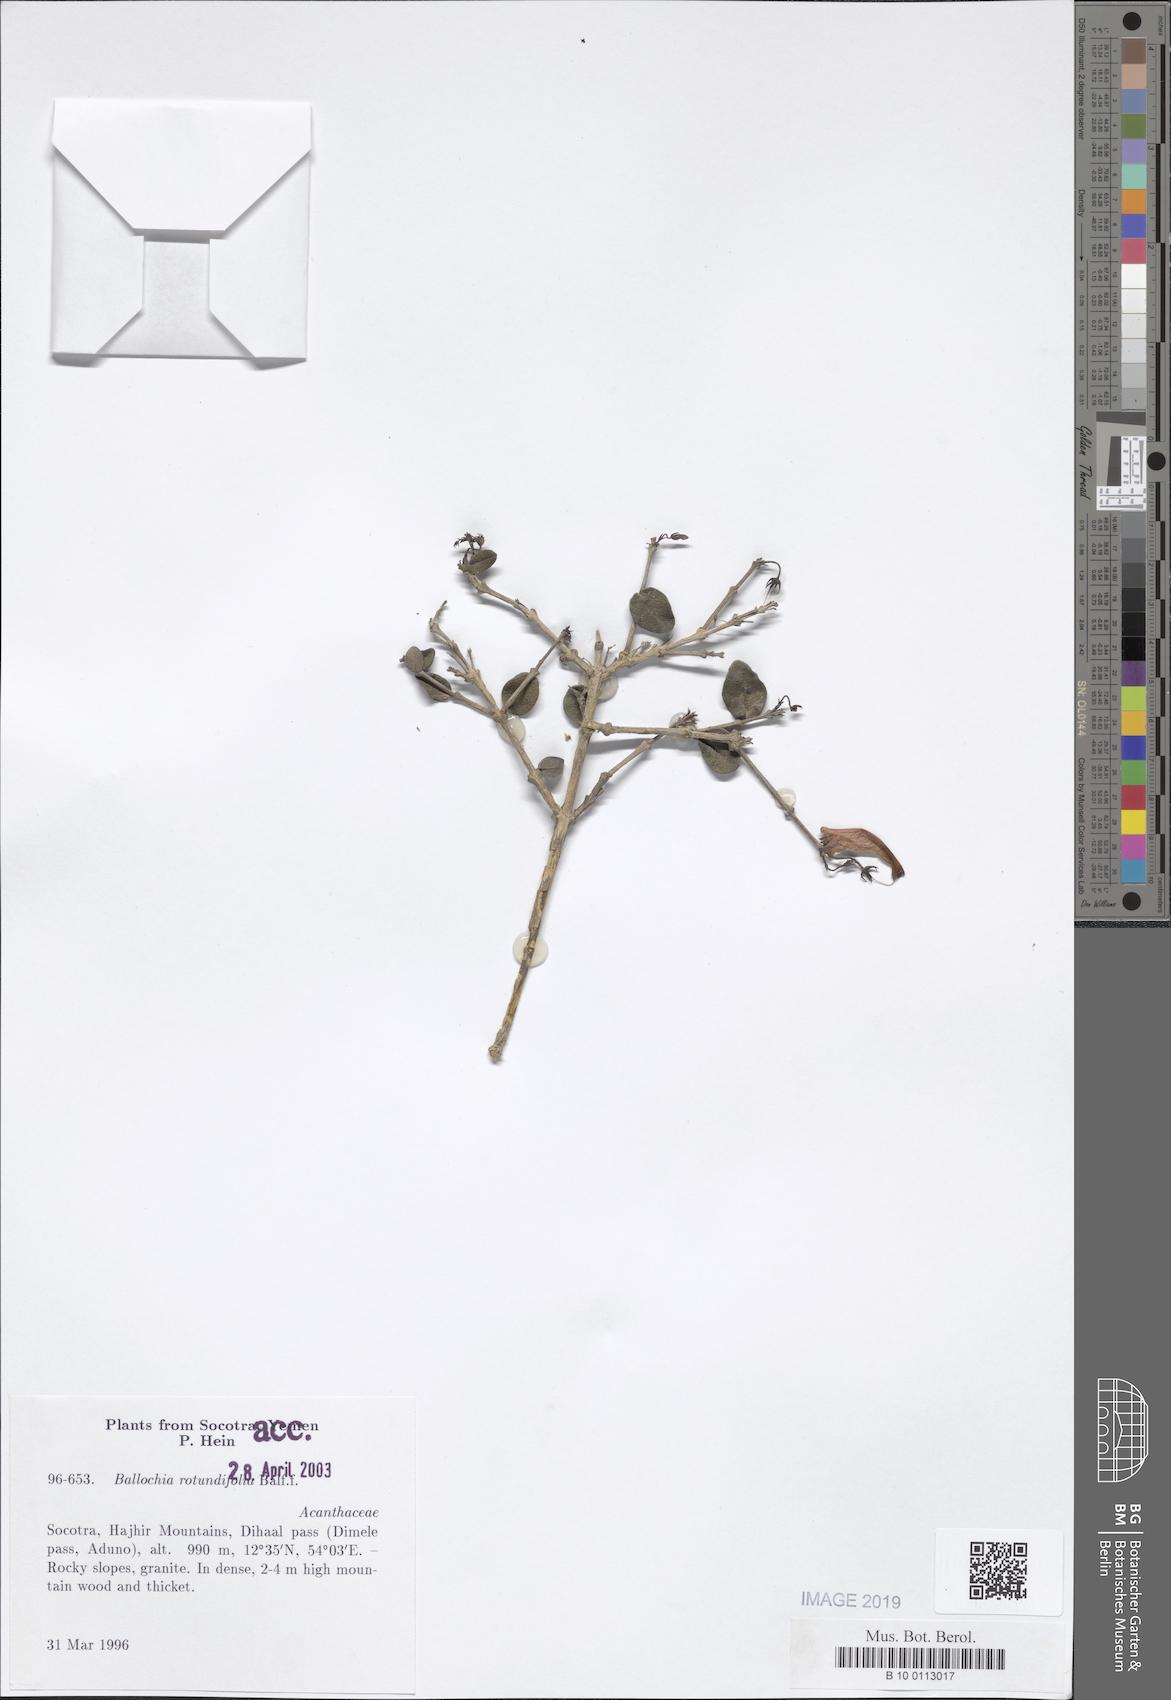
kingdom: Plantae
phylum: Tracheophyta
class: Magnoliopsida
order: Lamiales
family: Acanthaceae
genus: Ballochia
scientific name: Ballochia rotundifolia
